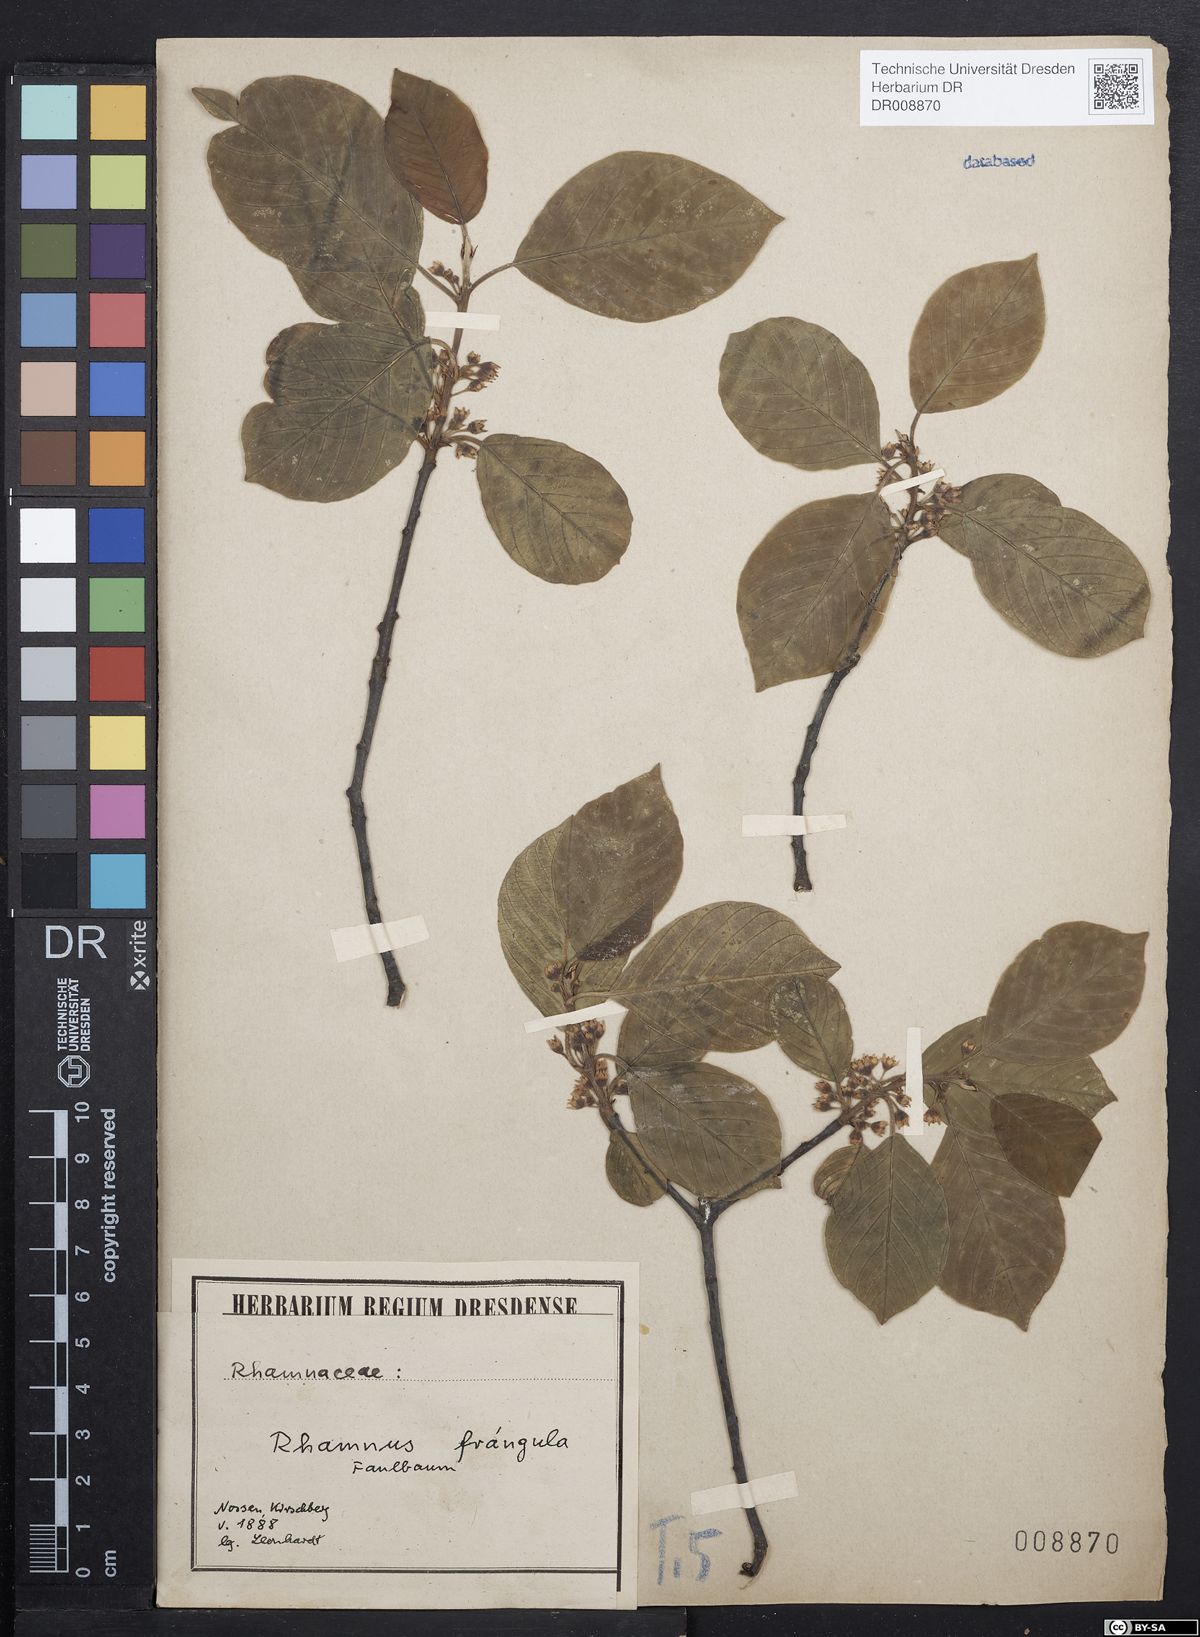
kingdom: Plantae
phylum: Tracheophyta
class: Magnoliopsida
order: Rosales
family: Rhamnaceae
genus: Frangula
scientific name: Frangula alnus
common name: Alder buckthorn
